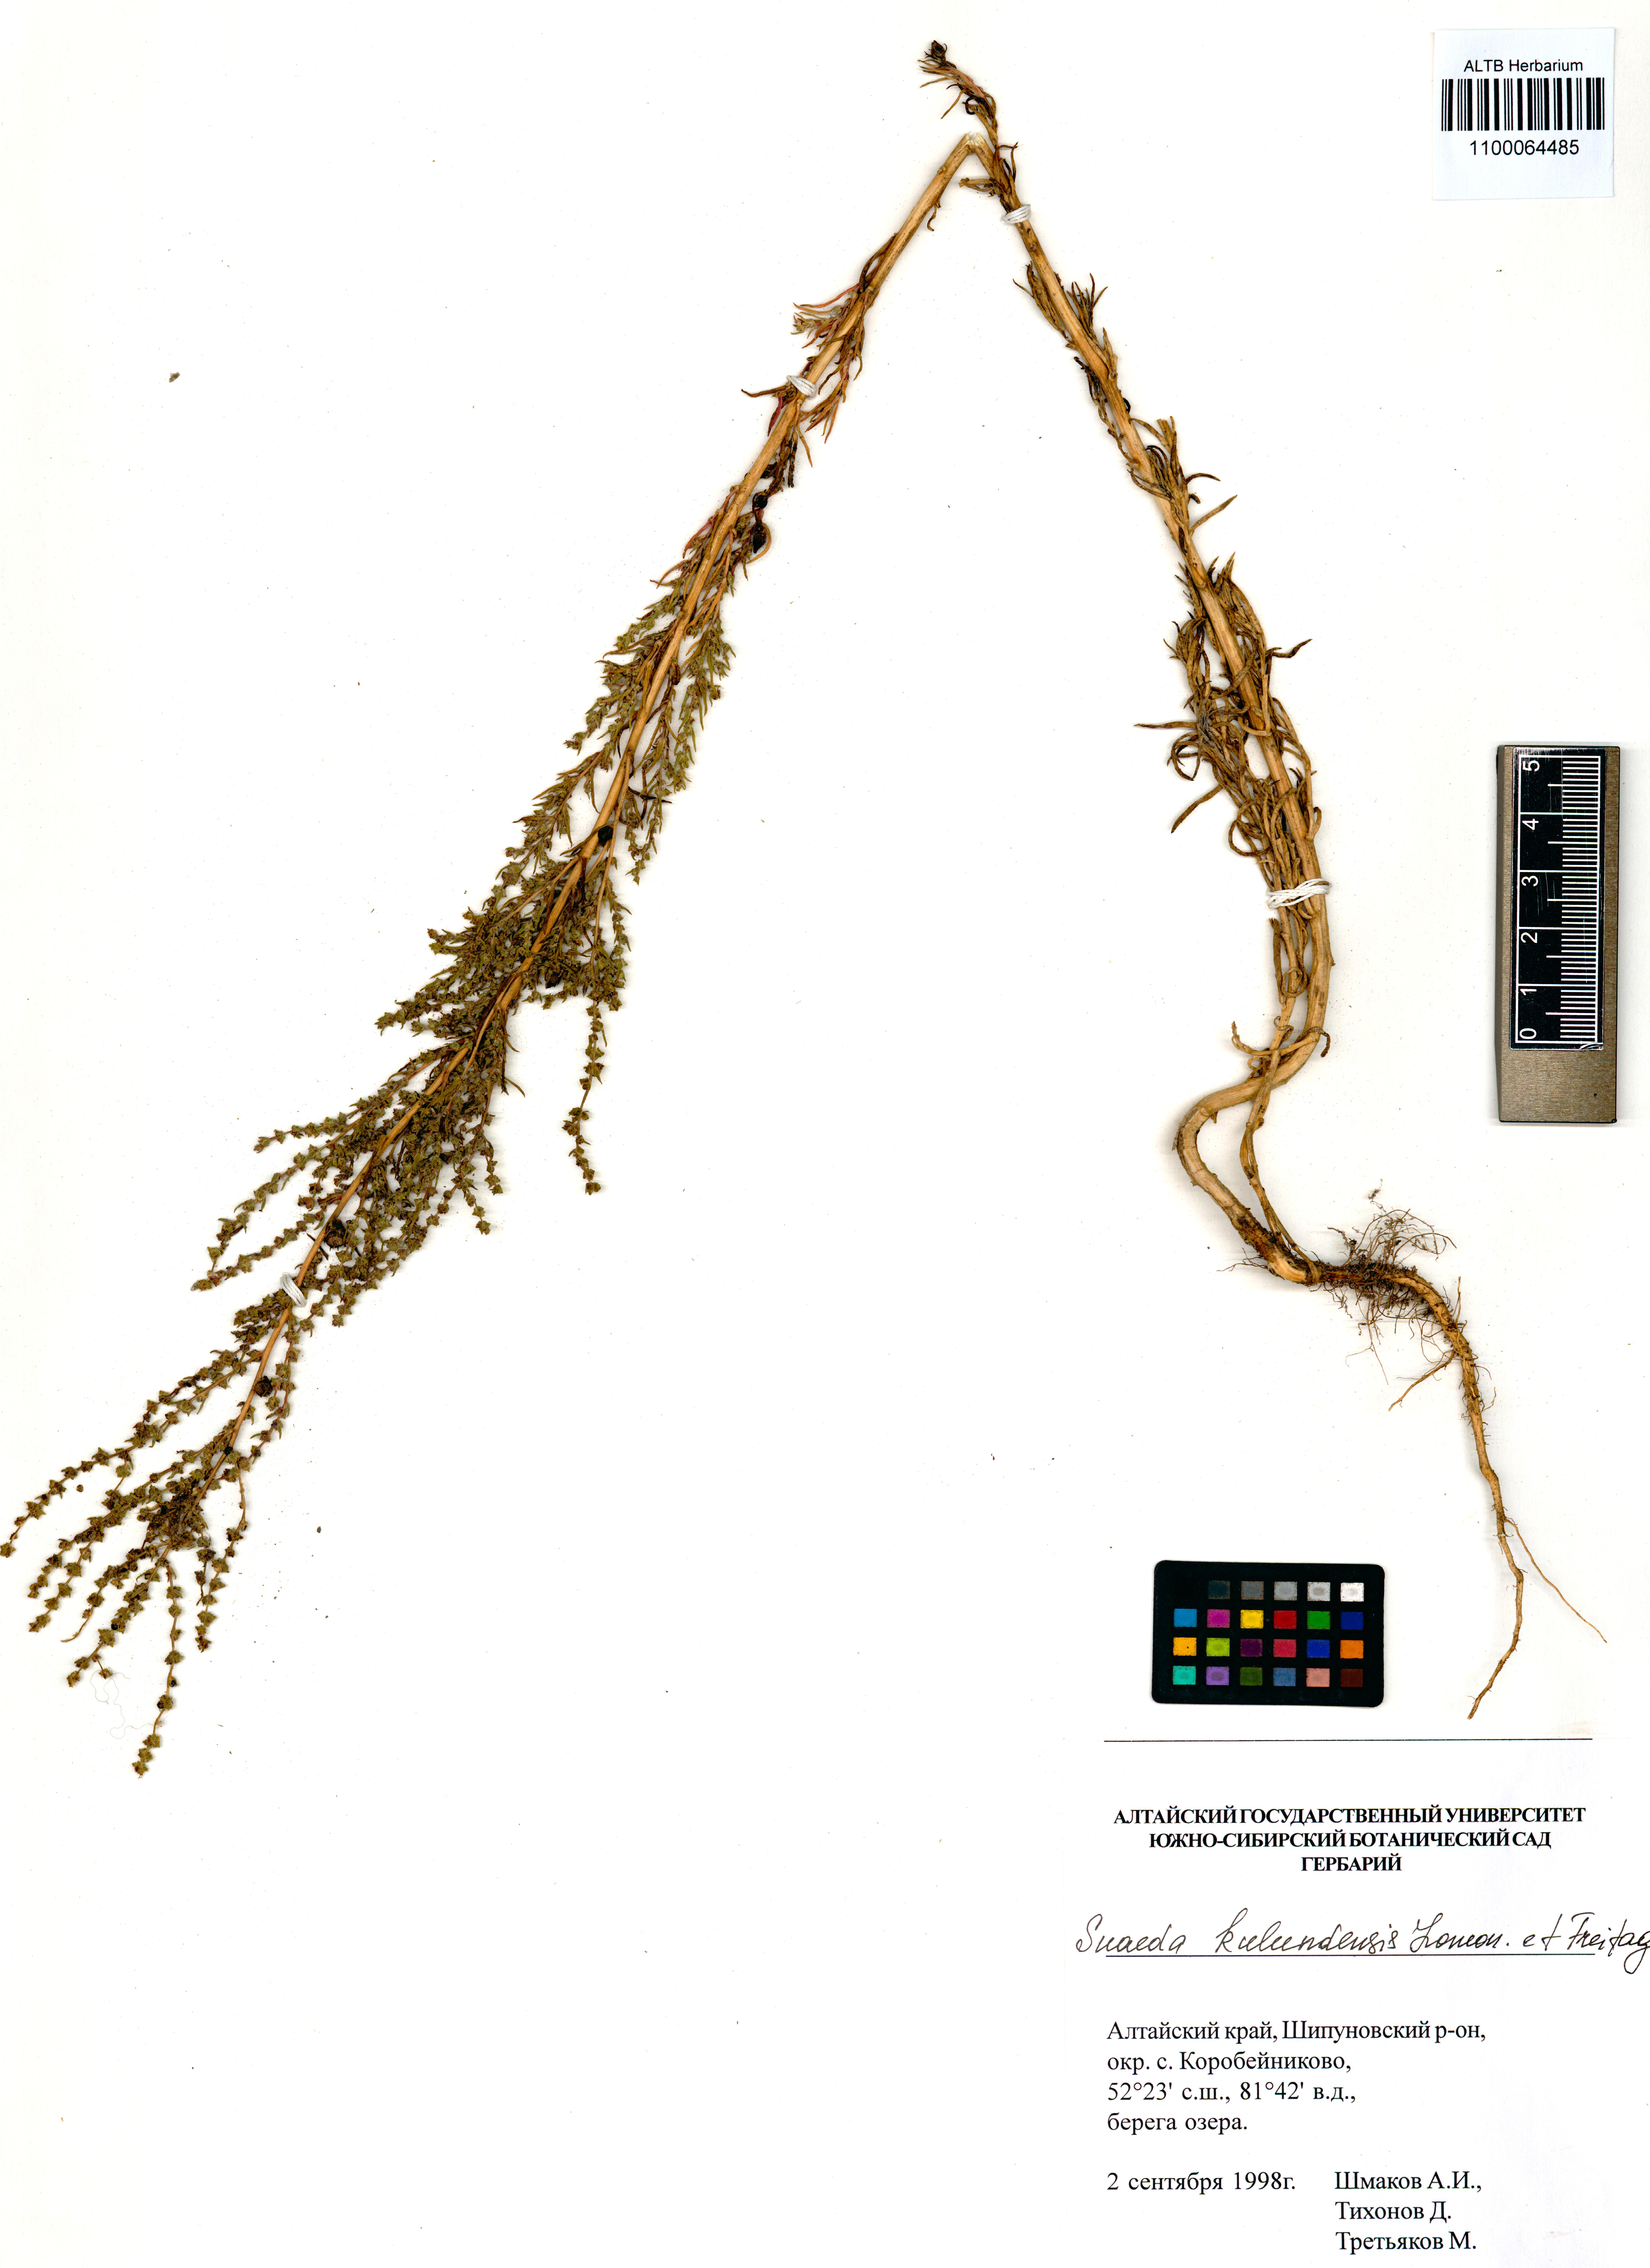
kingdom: Plantae
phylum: Tracheophyta
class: Magnoliopsida
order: Caryophyllales
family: Amaranthaceae
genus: Suaeda
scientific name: Suaeda kulundensis
